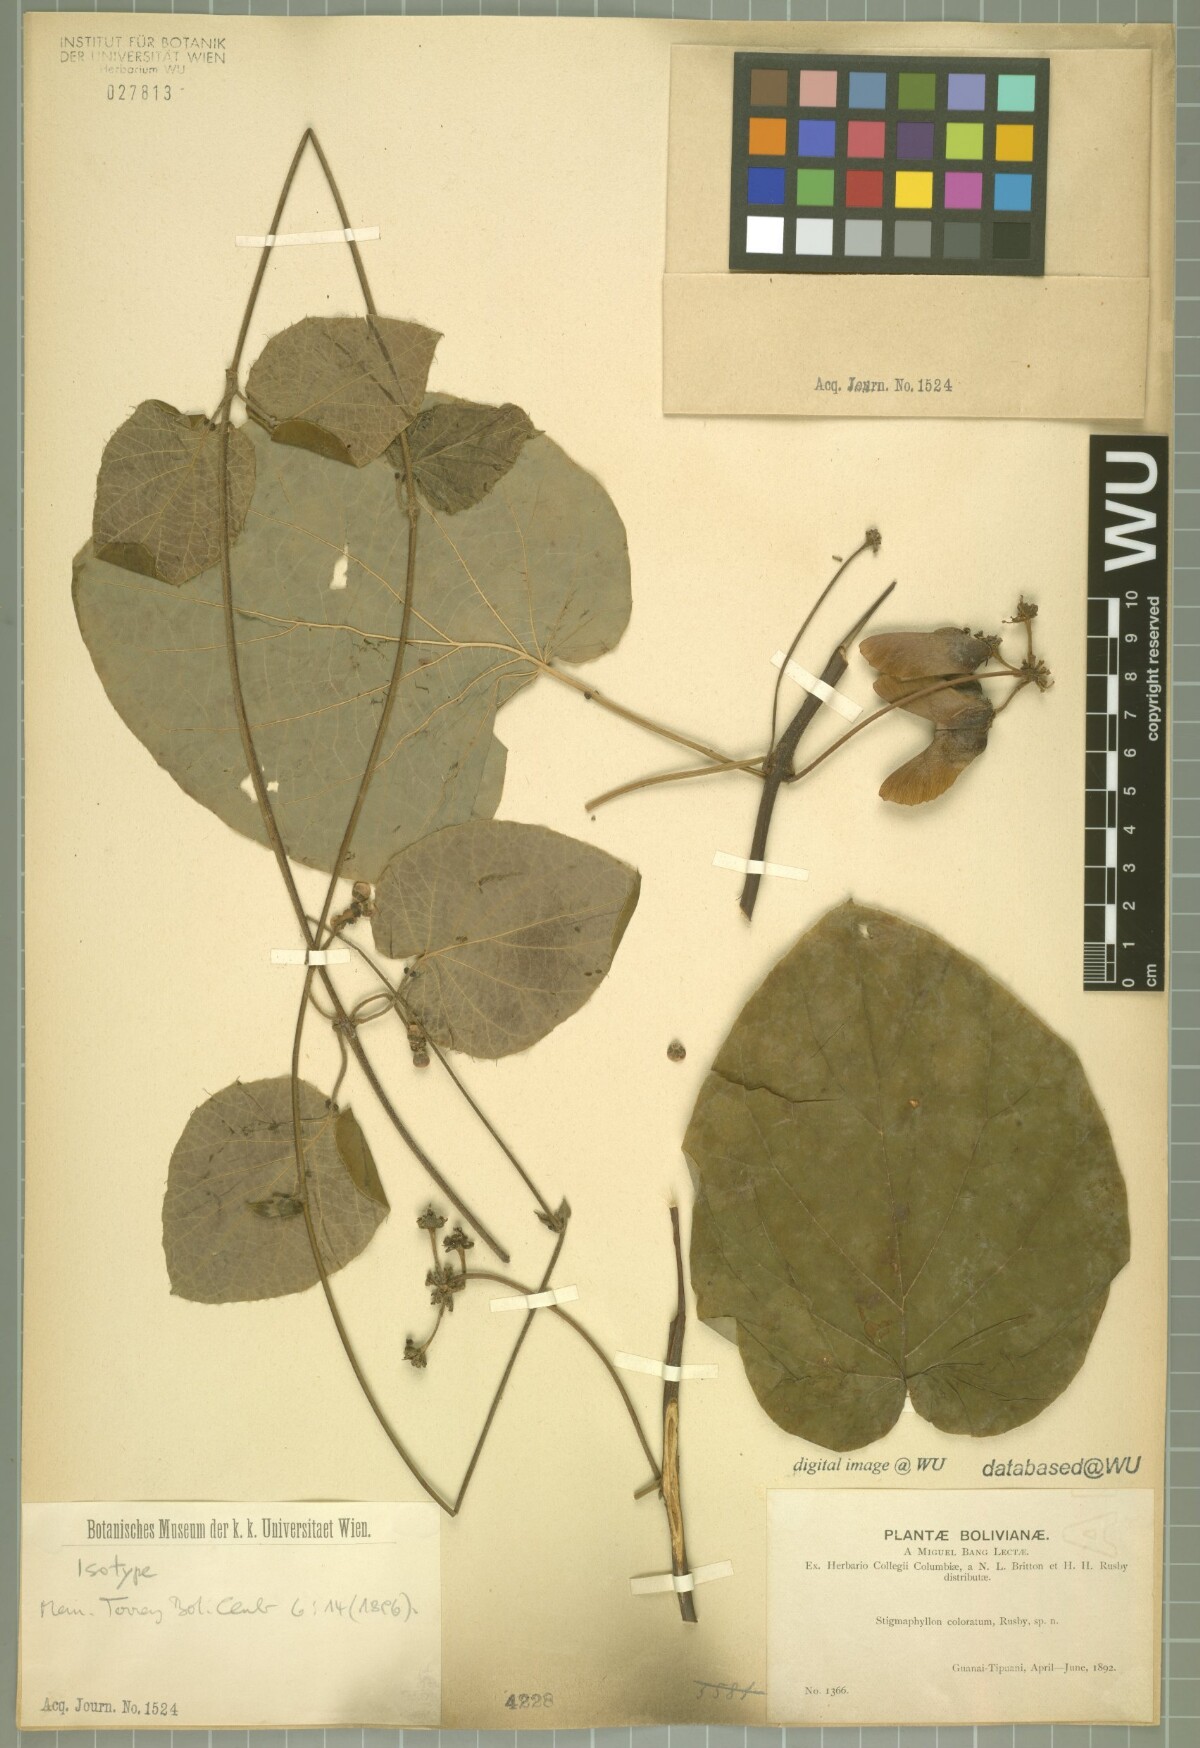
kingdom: Plantae
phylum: Tracheophyta
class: Magnoliopsida
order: Malpighiales
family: Malpighiaceae
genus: Stigmaphyllon
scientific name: Stigmaphyllon coloratum
